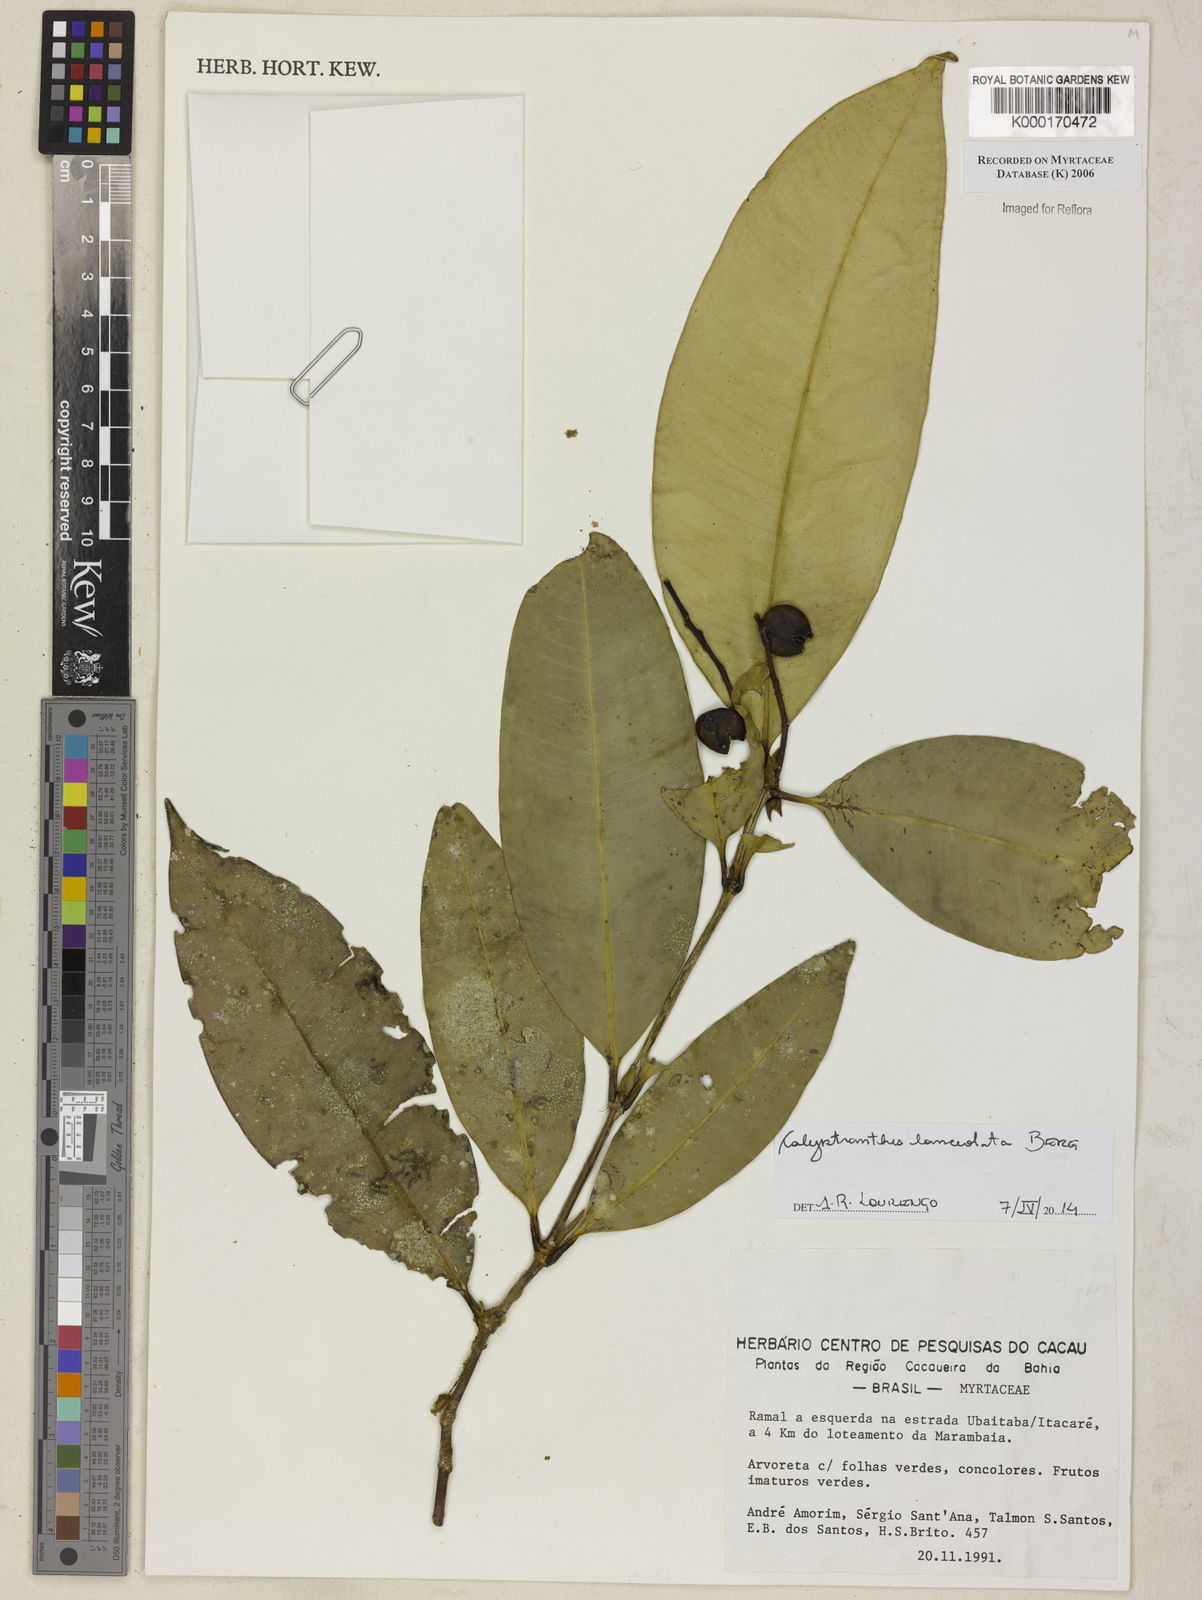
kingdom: Plantae
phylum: Tracheophyta
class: Magnoliopsida
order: Myrtales
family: Myrtaceae
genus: Calyptranthes
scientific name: Calyptranthes
